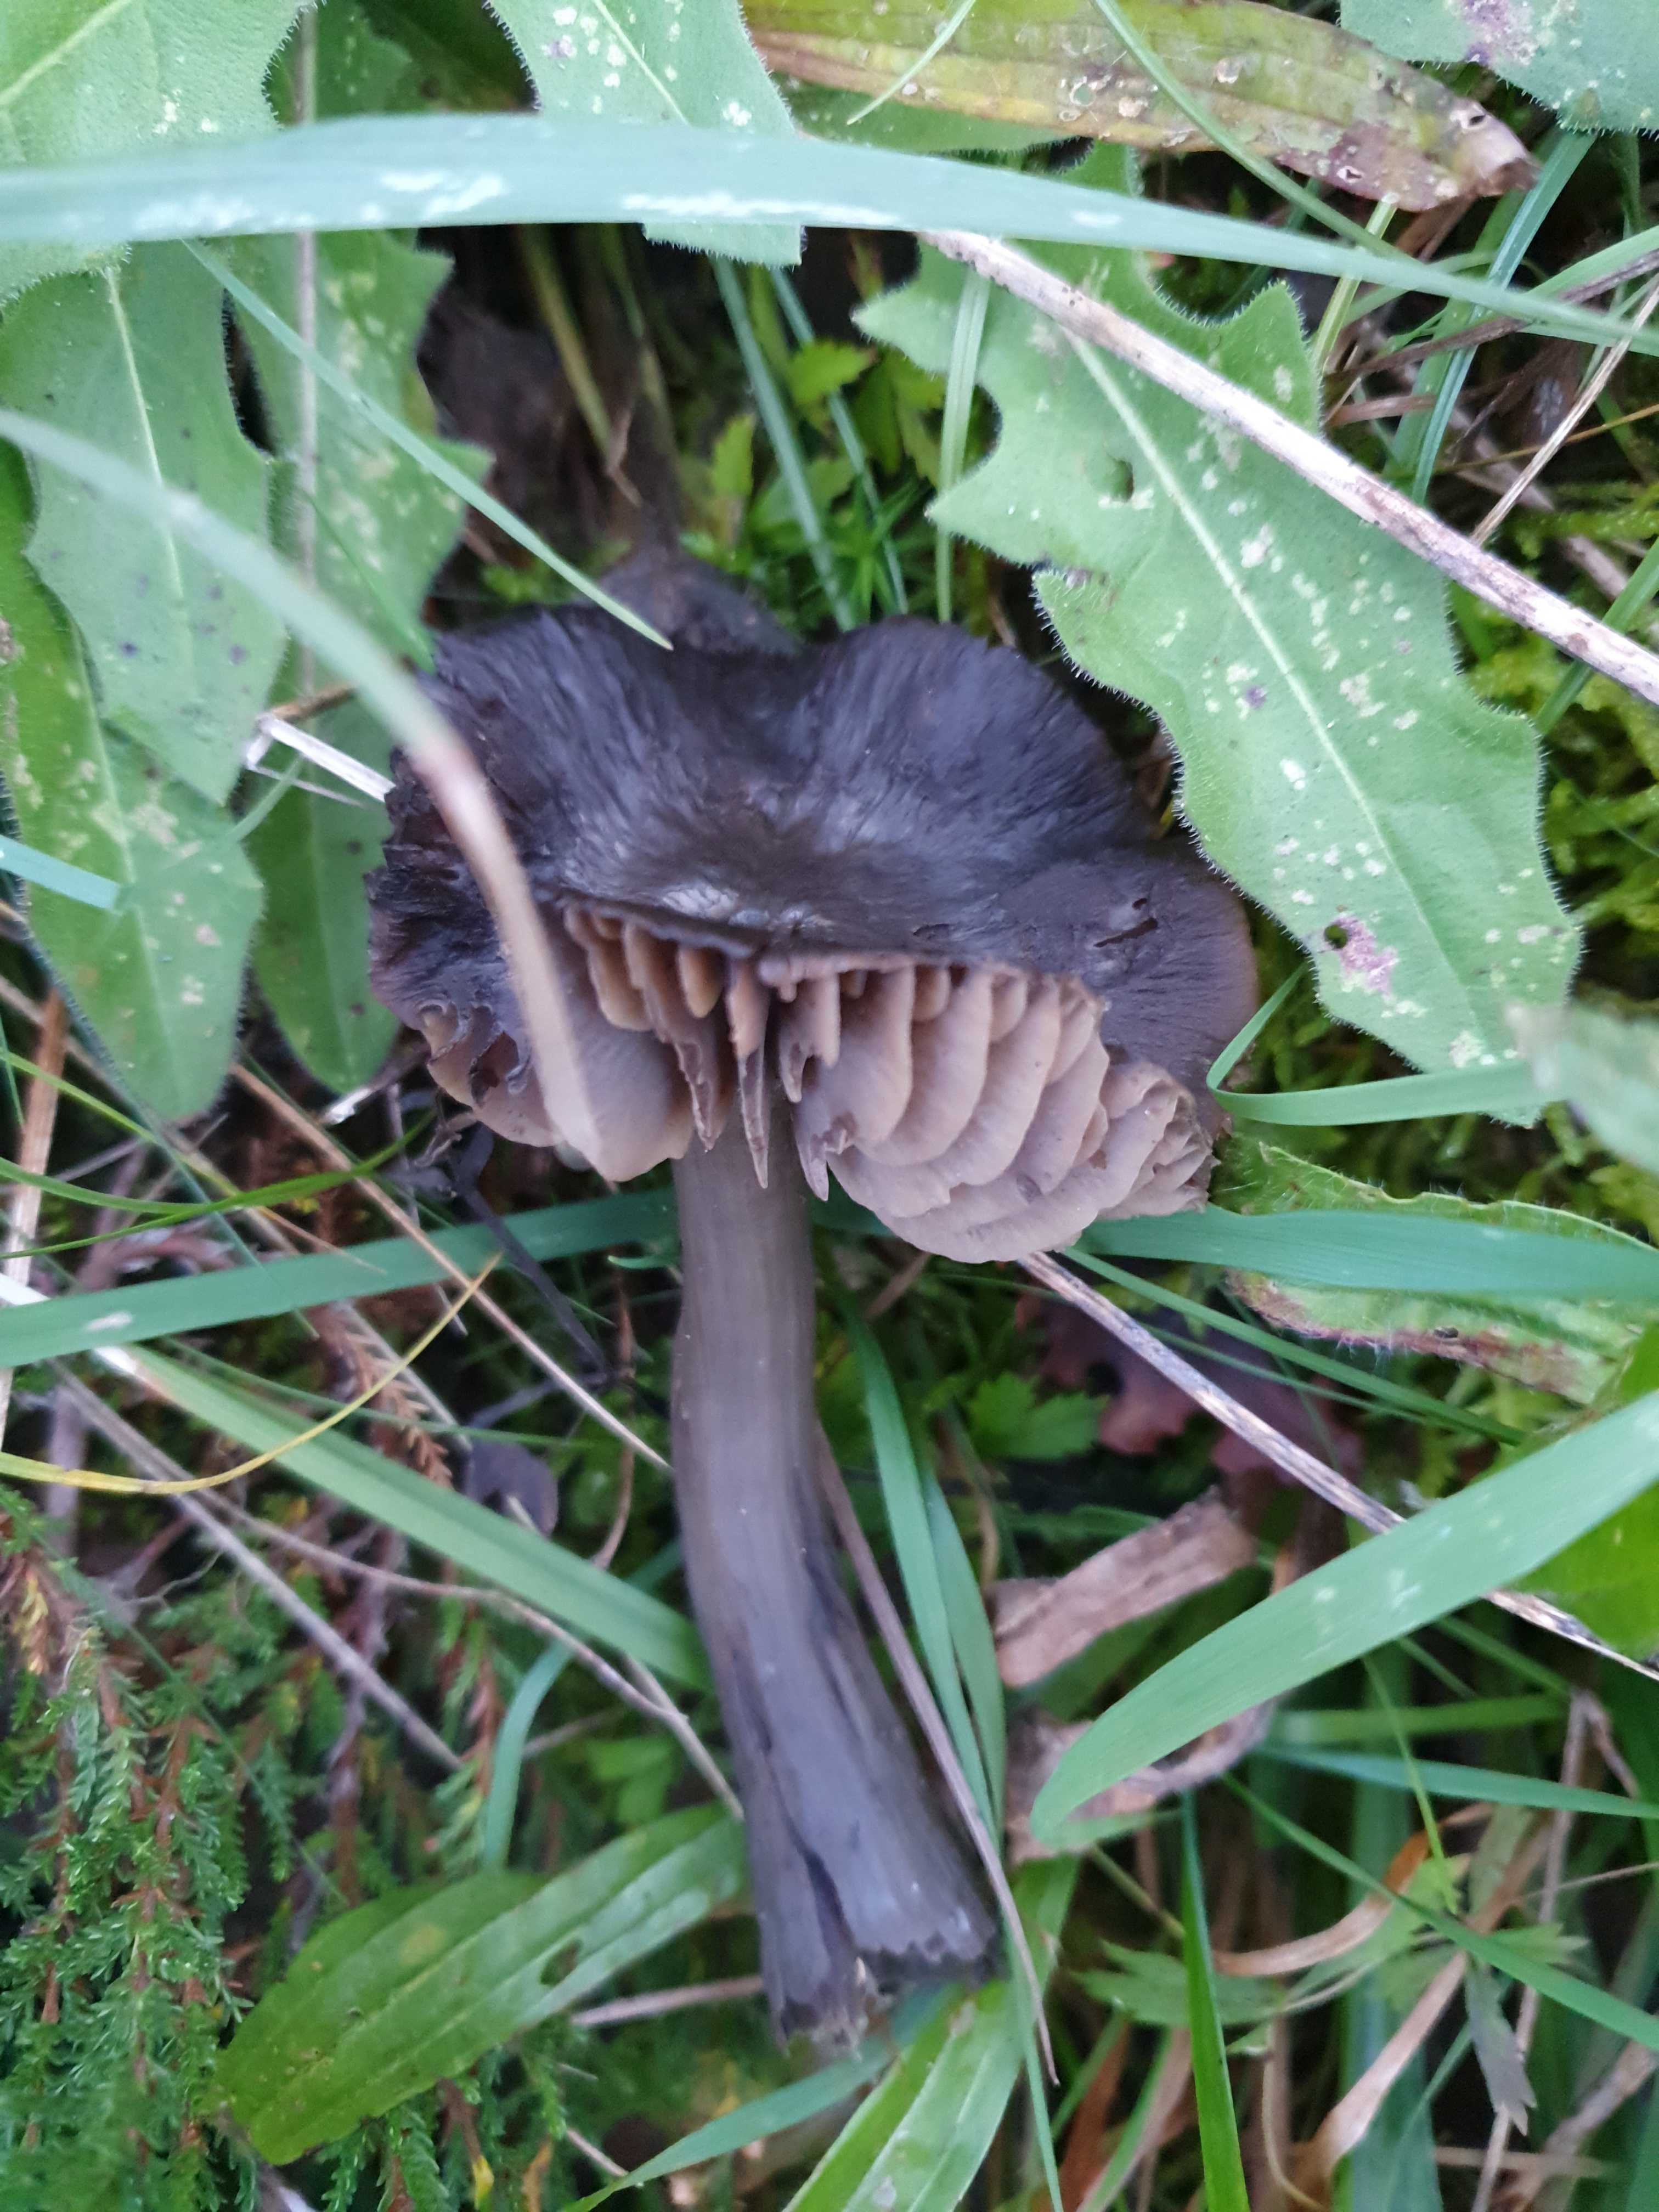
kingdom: Fungi
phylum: Basidiomycota
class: Agaricomycetes
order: Agaricales
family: Hygrophoraceae
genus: Neohygrocybe
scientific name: Neohygrocybe ovina
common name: rødmende vokshat
